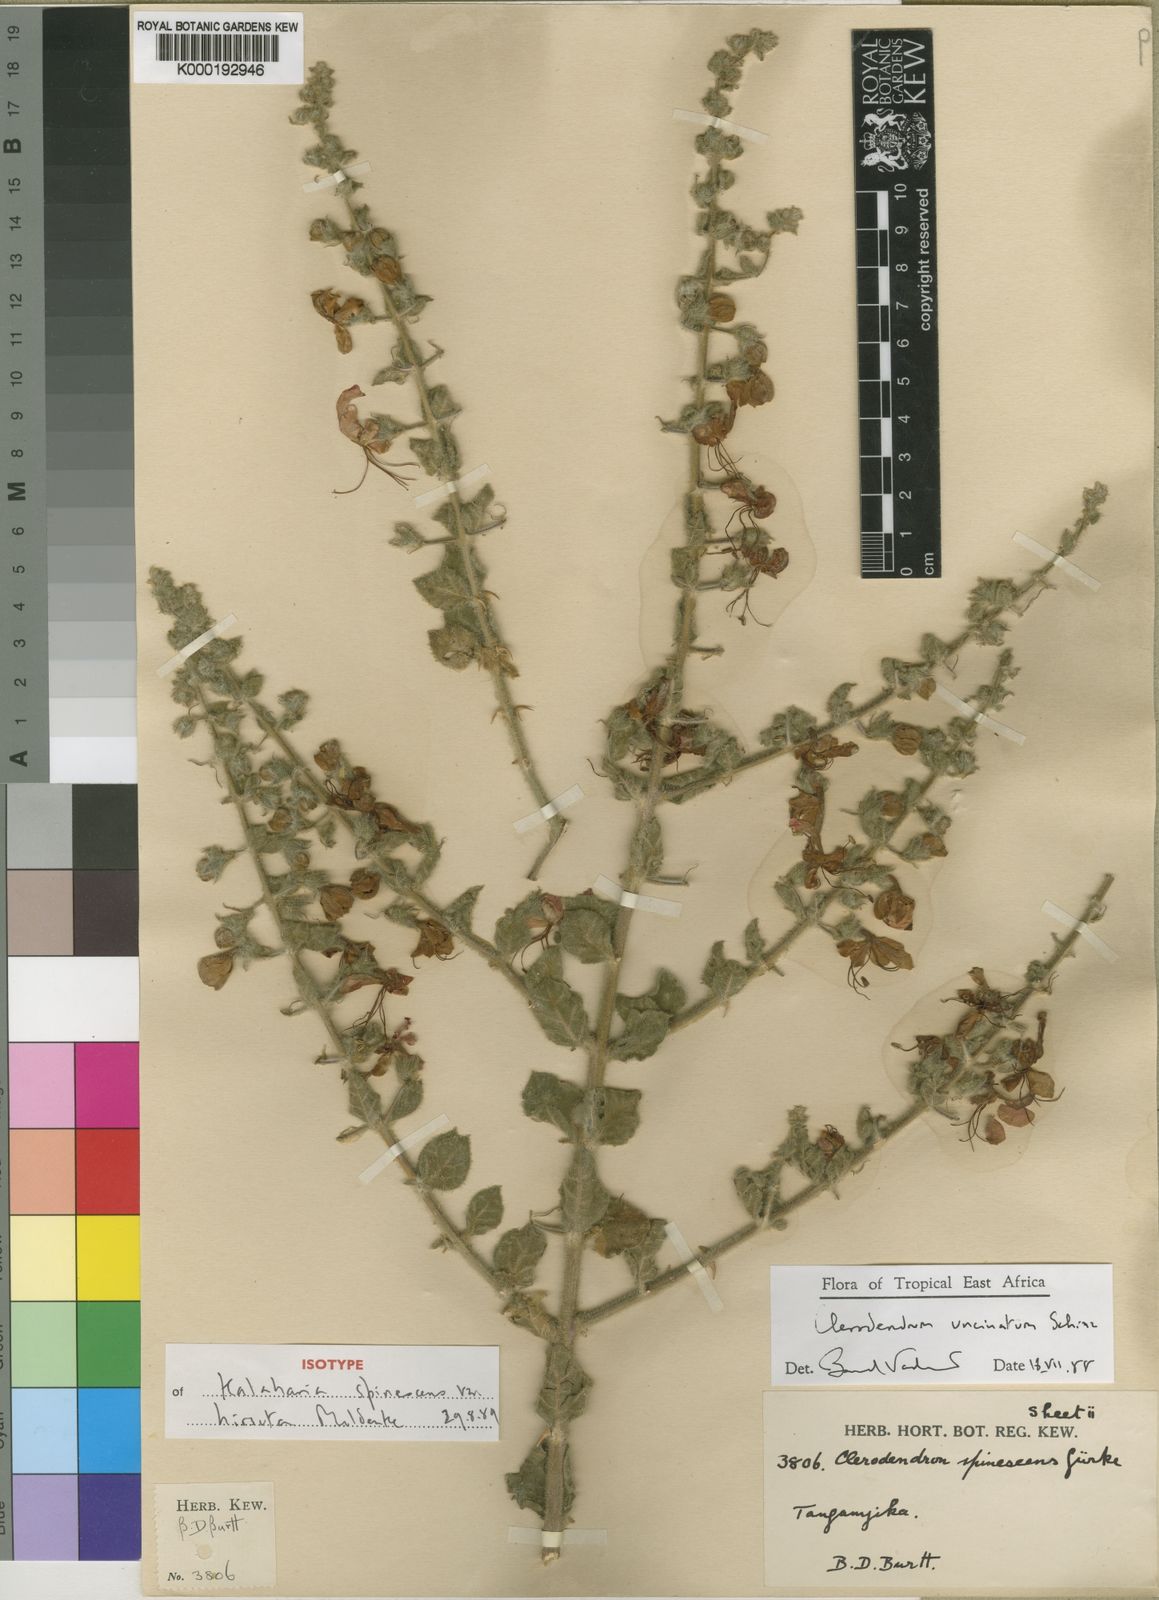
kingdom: Plantae
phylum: Tracheophyta
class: Magnoliopsida
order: Lamiales
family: Lamiaceae
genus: Clerodendrum
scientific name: Clerodendrum
